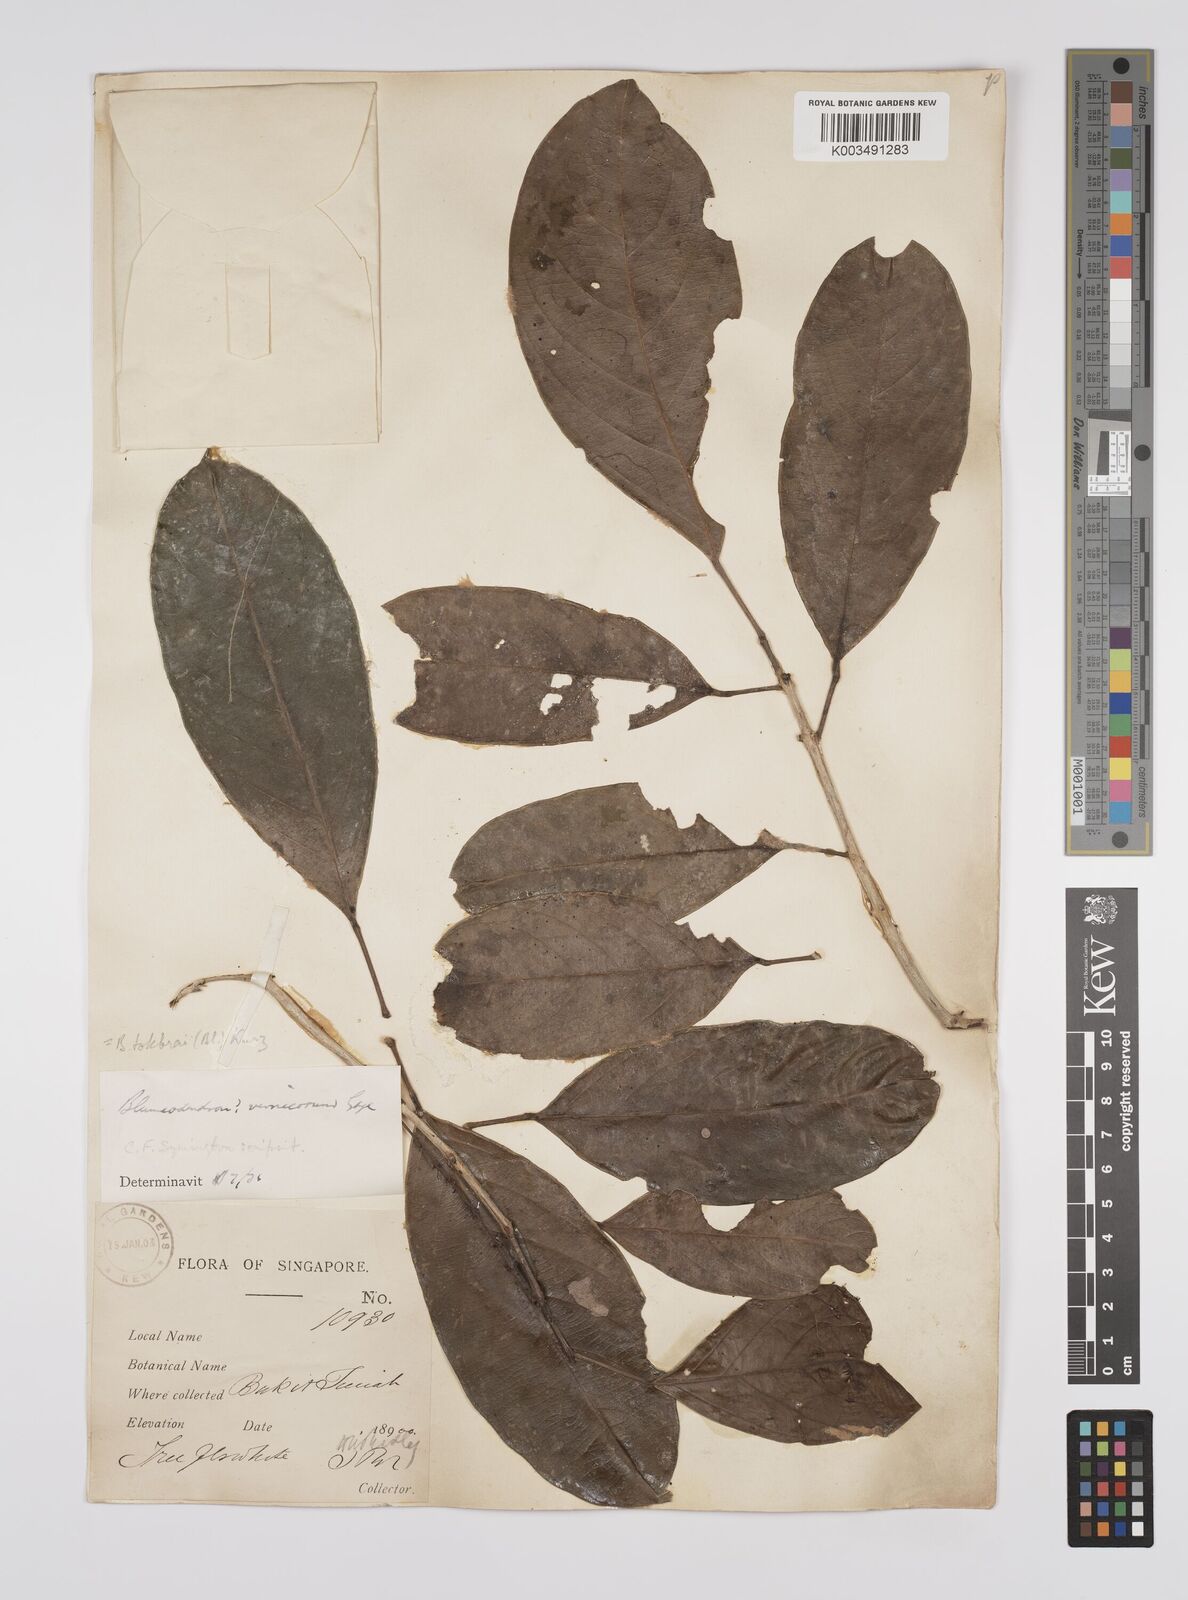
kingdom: Plantae
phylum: Tracheophyta
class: Magnoliopsida
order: Malpighiales
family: Euphorbiaceae
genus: Blumeodendron
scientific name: Blumeodendron tokbrai
